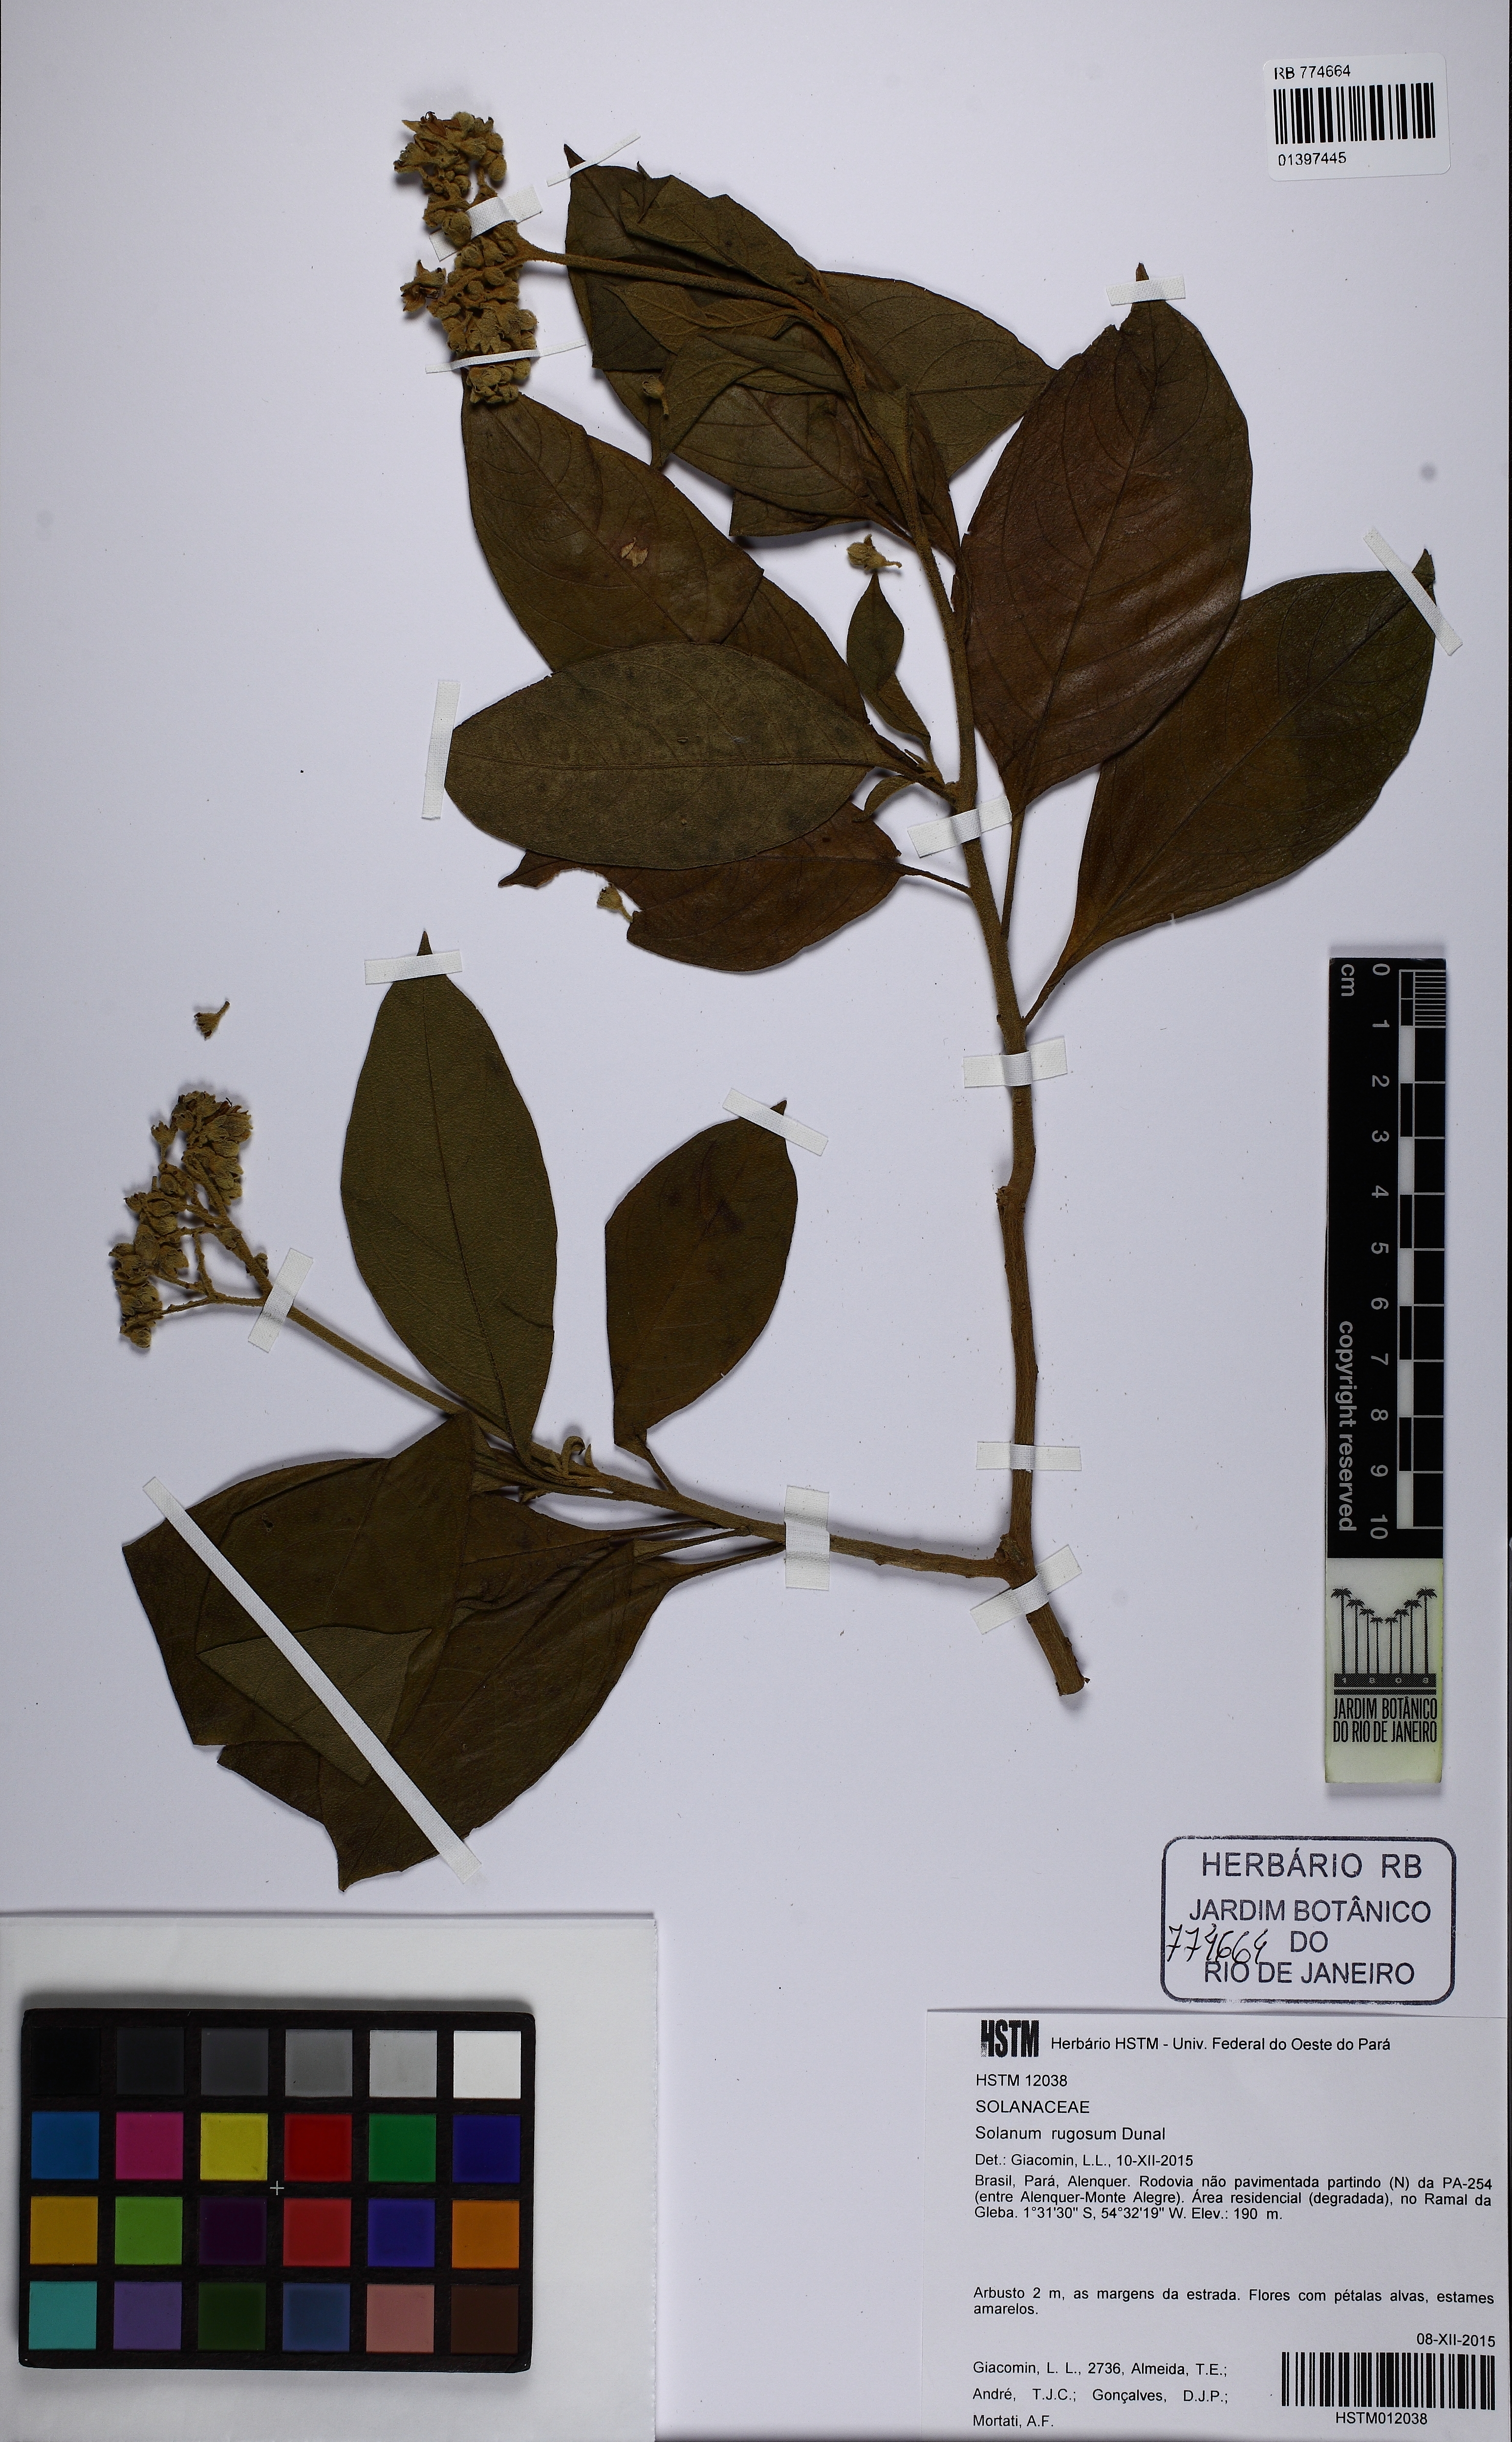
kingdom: Plantae
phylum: Tracheophyta
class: Magnoliopsida
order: Solanales
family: Solanaceae
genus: Solanum
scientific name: Solanum rugosum
